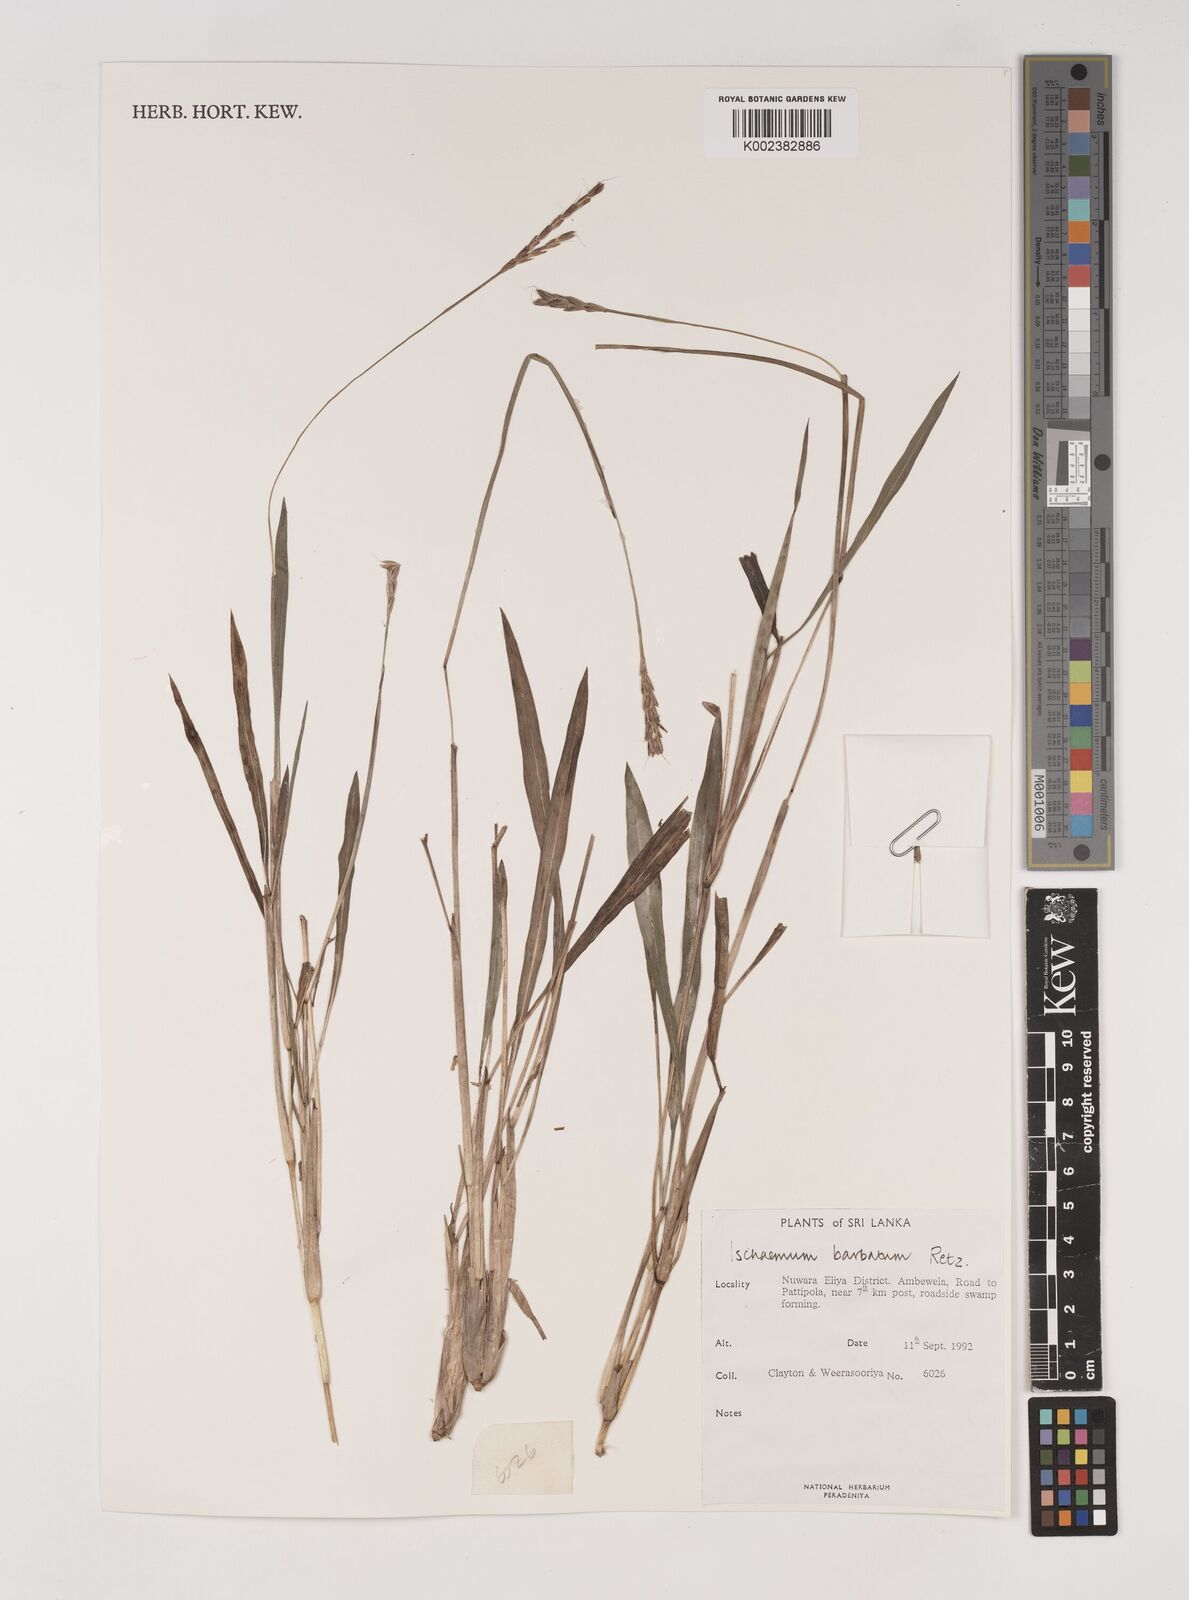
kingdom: Plantae
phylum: Tracheophyta
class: Liliopsida
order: Poales
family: Poaceae
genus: Ischaemum
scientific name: Ischaemum
